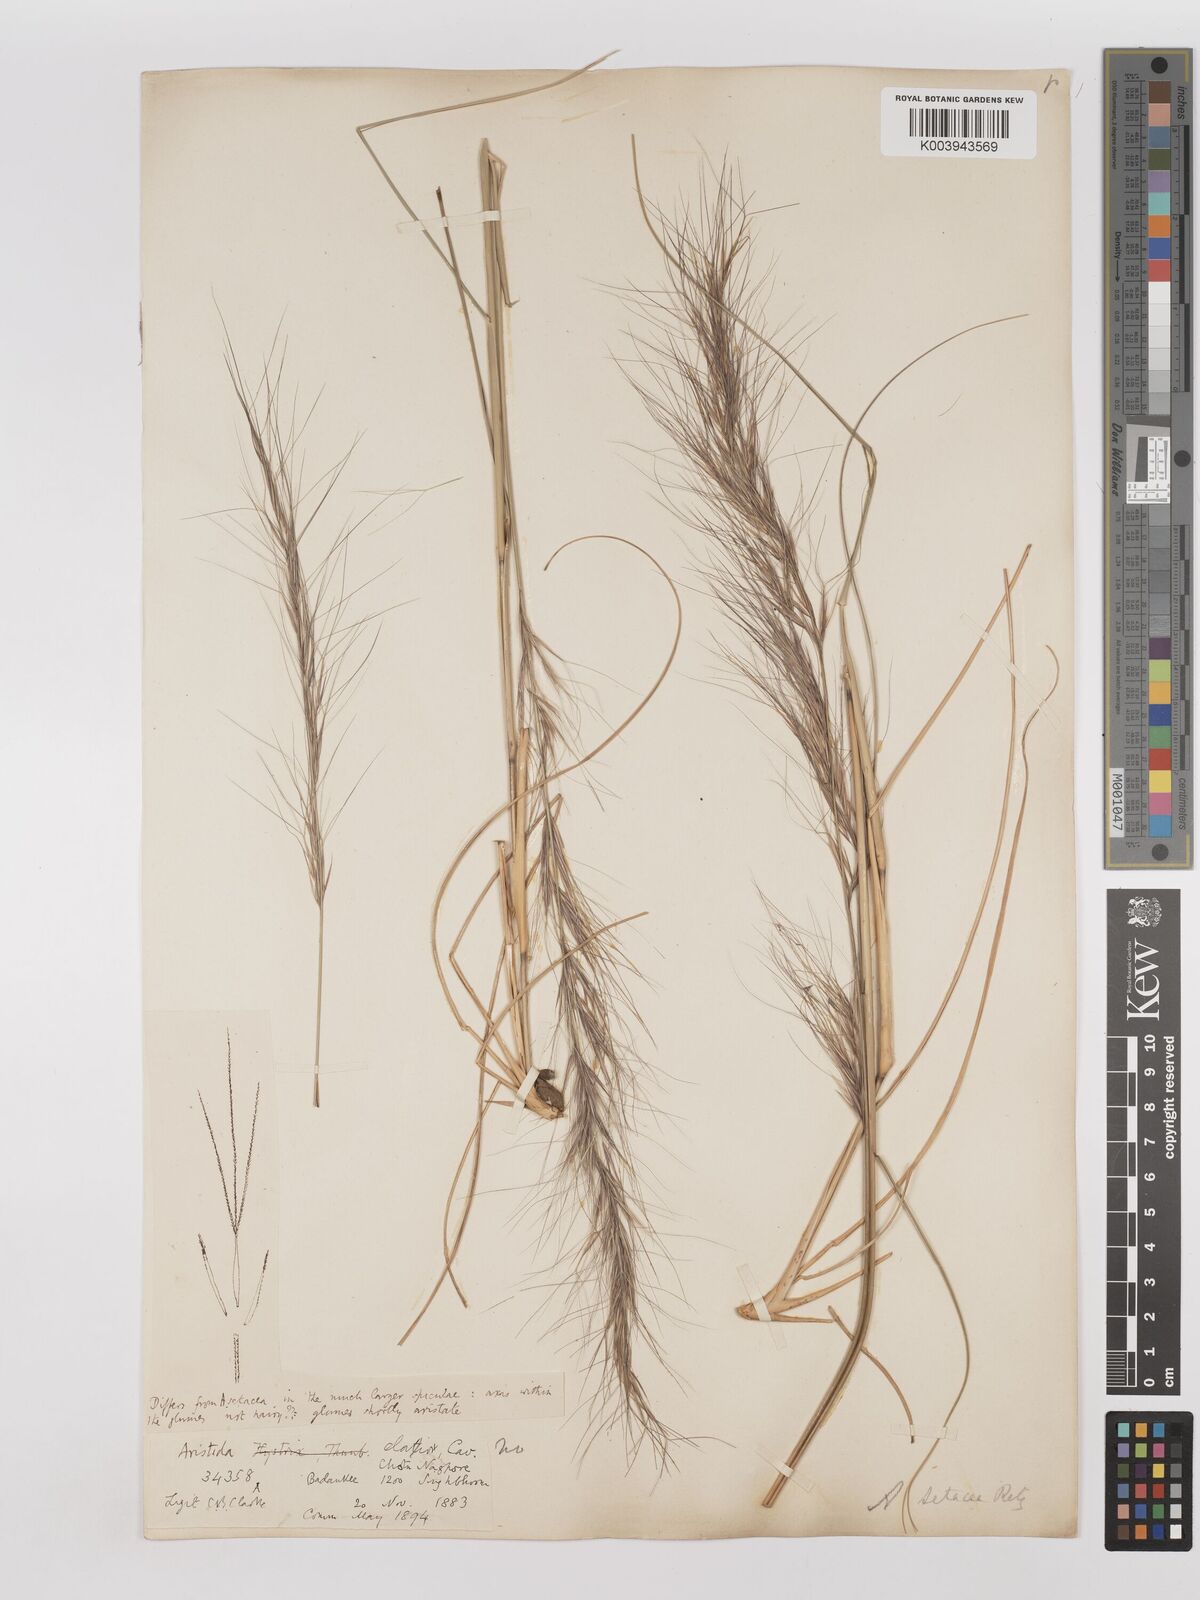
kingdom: Plantae
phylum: Tracheophyta
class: Liliopsida
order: Poales
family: Poaceae
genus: Aristida
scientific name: Aristida setacea
